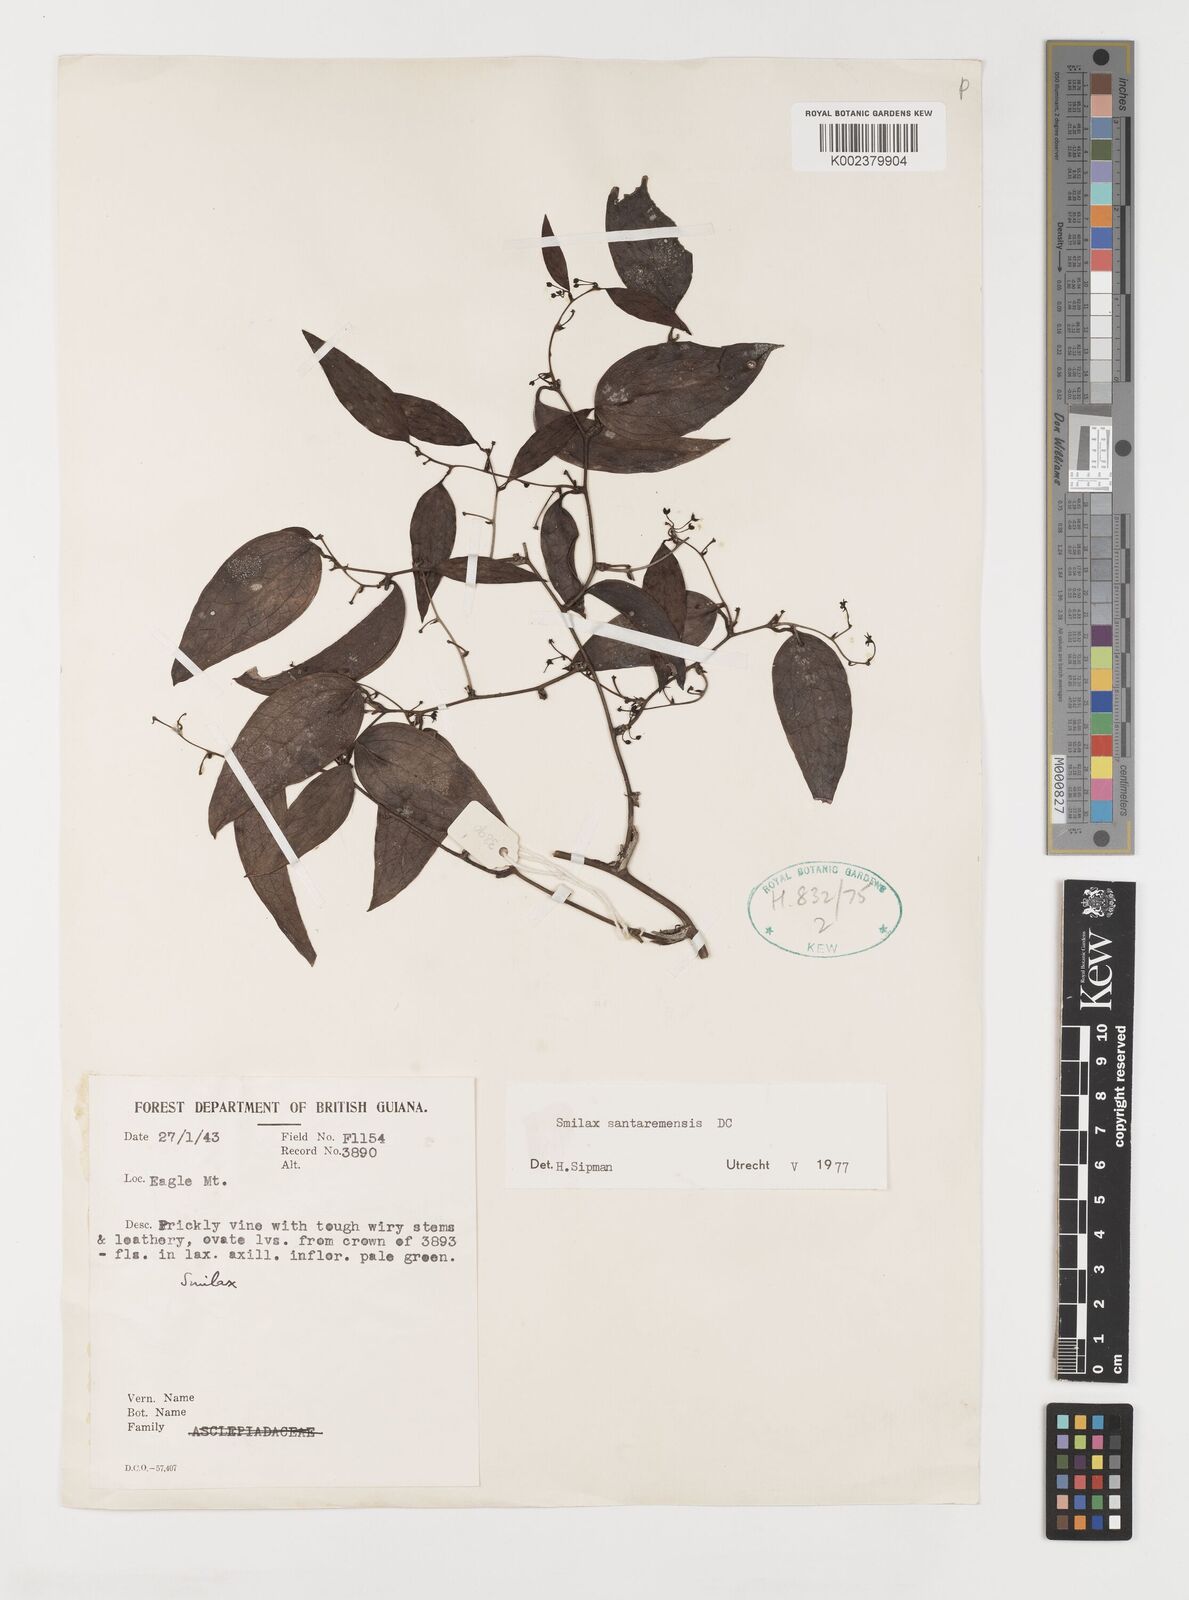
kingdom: Plantae
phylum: Tracheophyta
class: Liliopsida
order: Liliales
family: Smilacaceae
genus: Smilax
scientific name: Smilax santaremensis
